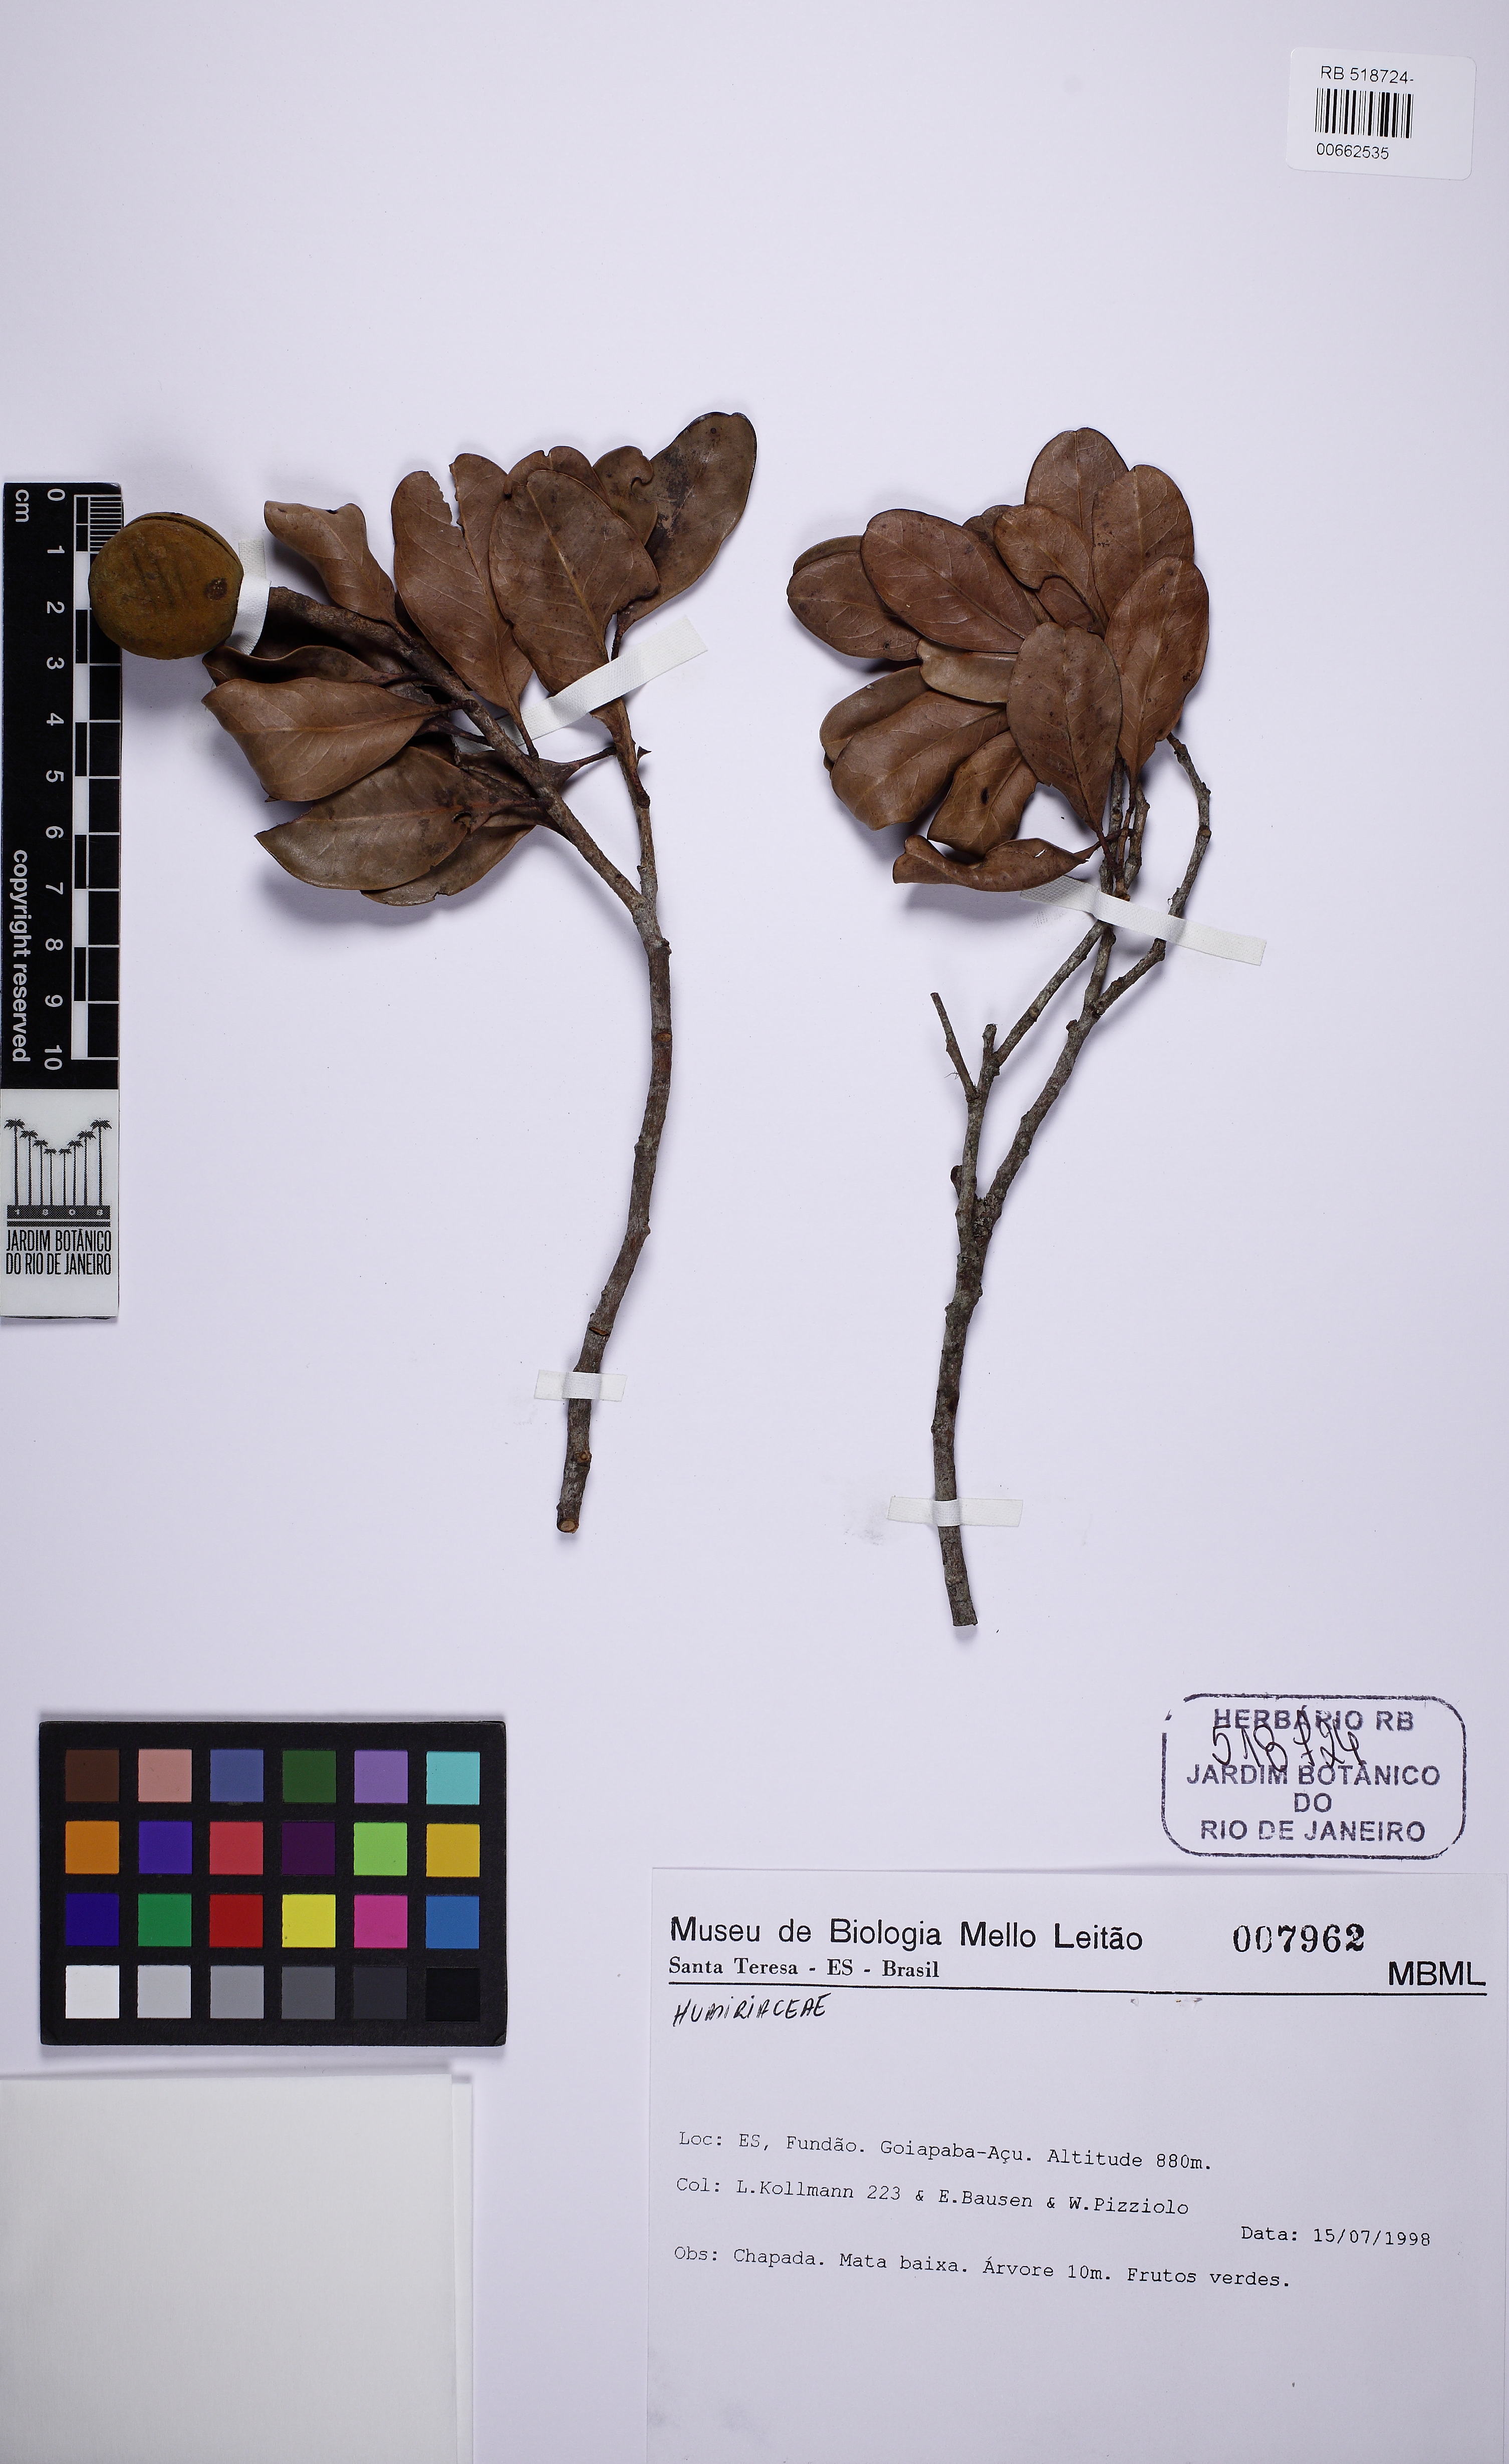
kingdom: Plantae
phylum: Tracheophyta
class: Magnoliopsida
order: Malpighiales
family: Humiriaceae
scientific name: Humiriaceae
